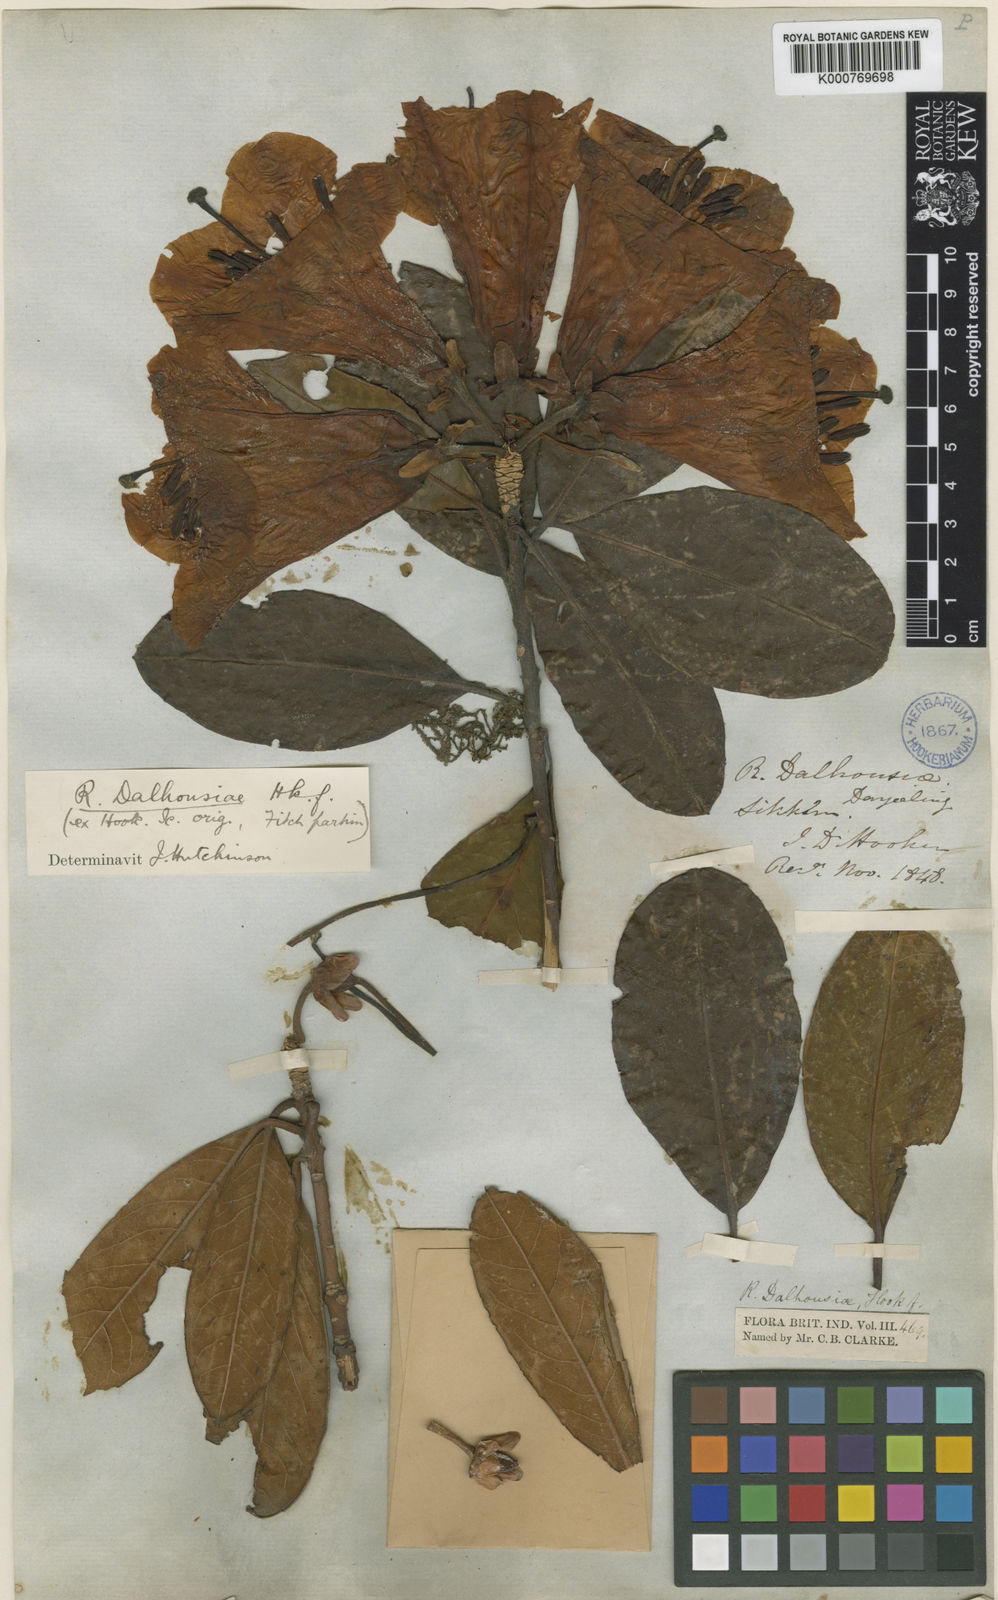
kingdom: Plantae
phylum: Tracheophyta
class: Magnoliopsida
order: Ericales
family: Ericaceae
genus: Rhododendron
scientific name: Rhododendron dalhousieae
